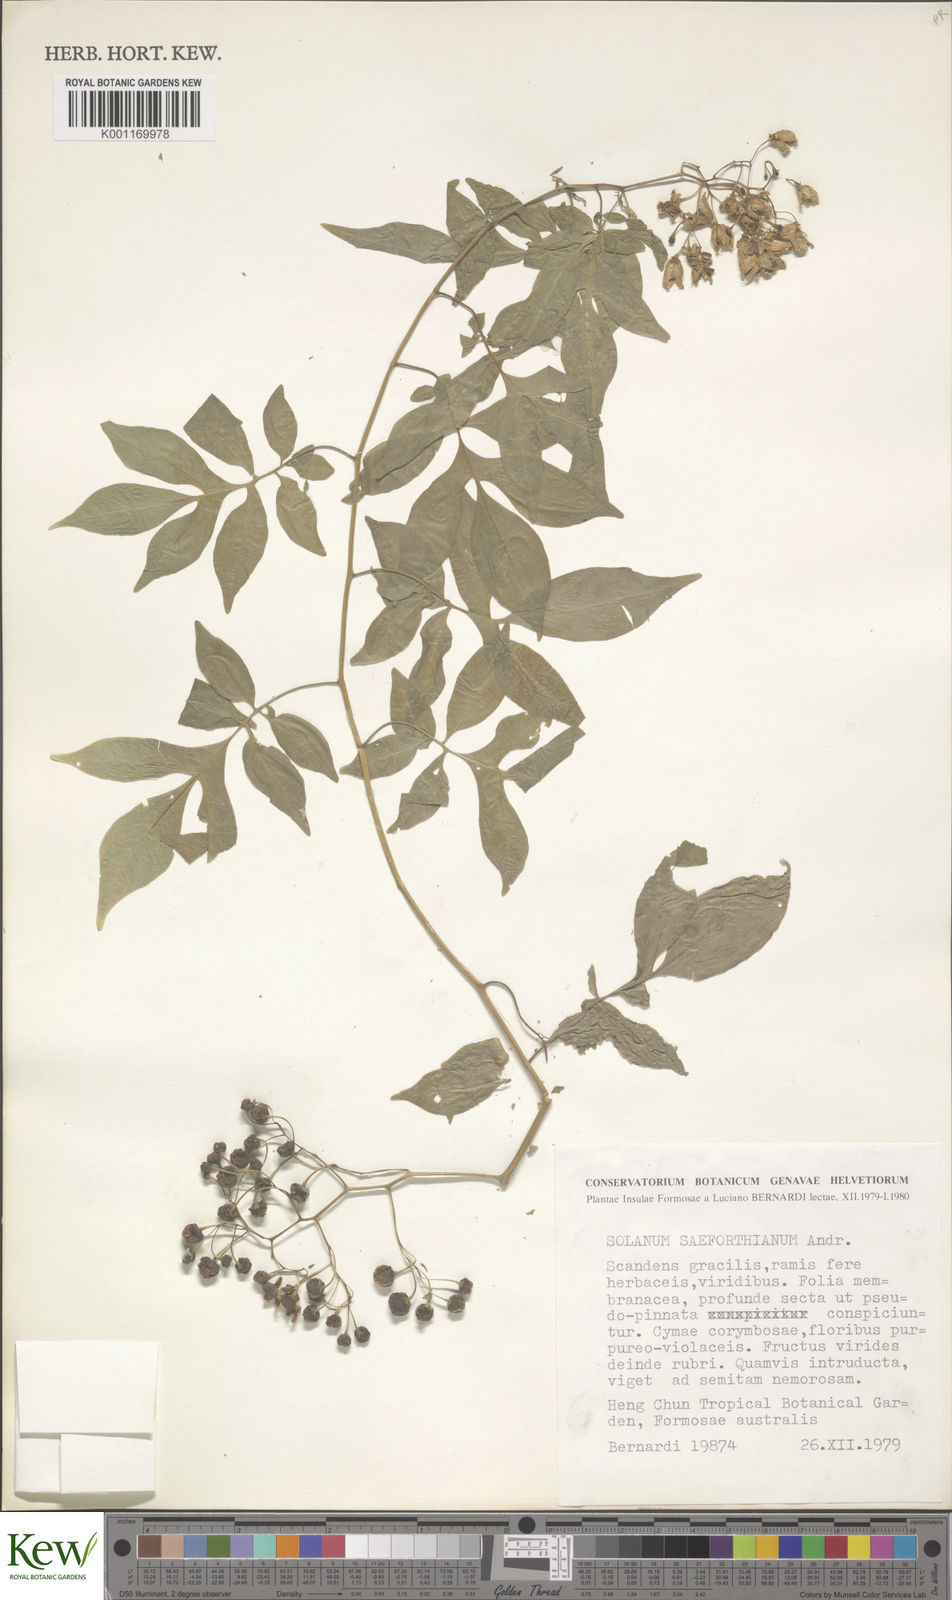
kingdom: Plantae
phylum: Tracheophyta
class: Magnoliopsida
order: Solanales
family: Solanaceae
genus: Solanum
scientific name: Solanum seaforthianum
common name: Brazilian nightshade
